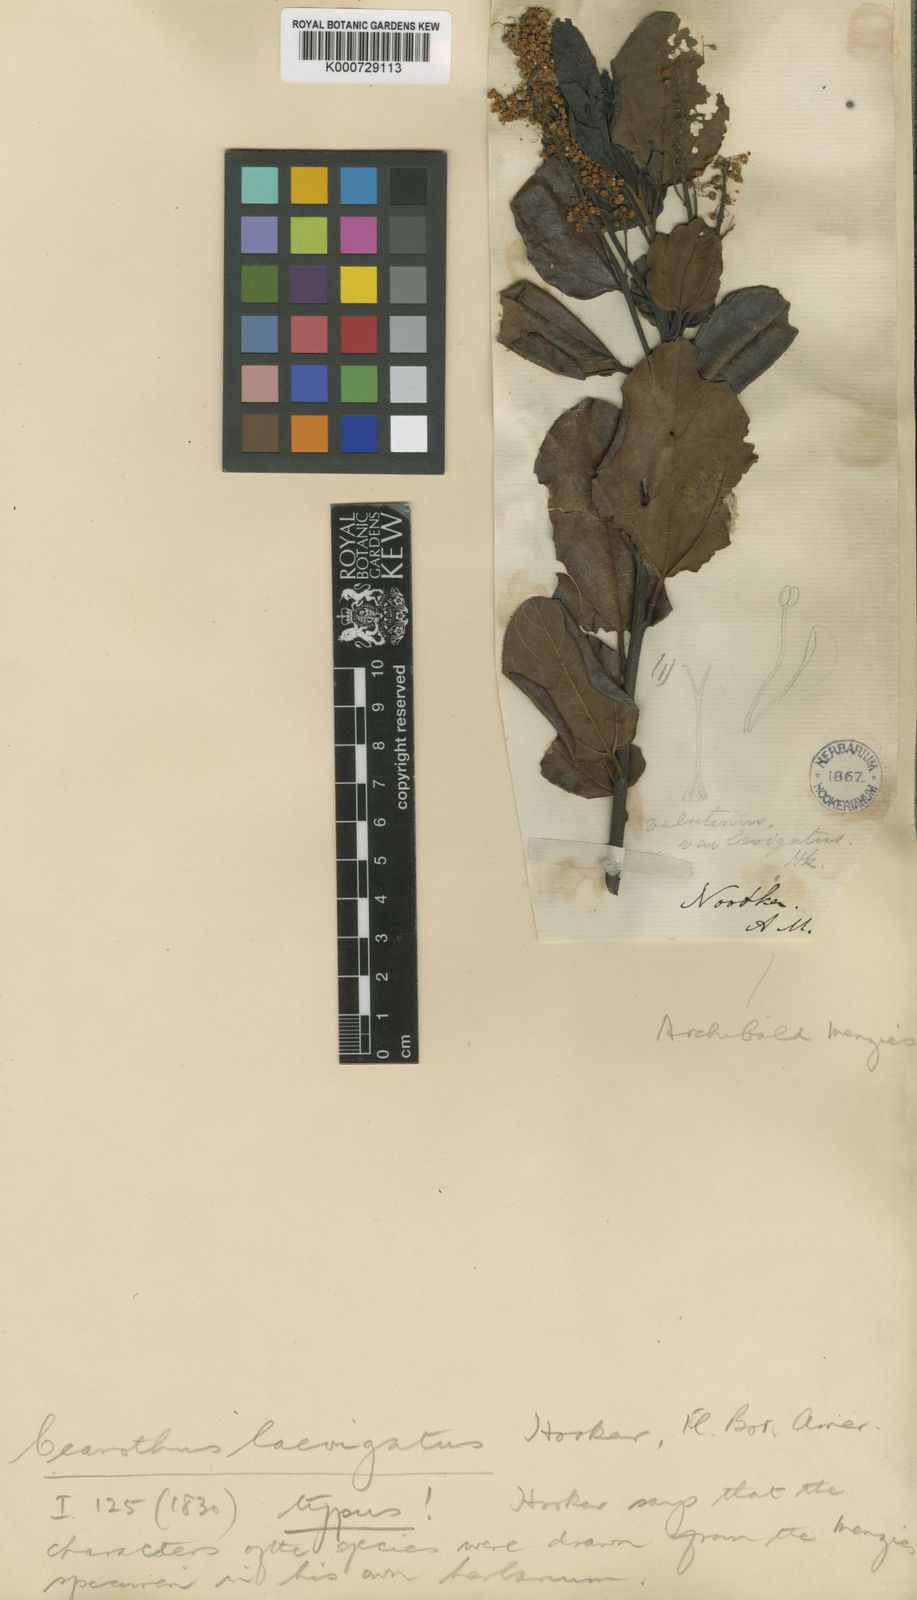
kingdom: Plantae
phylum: Tracheophyta
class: Magnoliopsida
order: Rosales
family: Rhamnaceae
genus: Ceanothus
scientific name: Ceanothus velutinus
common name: Snowbrush
